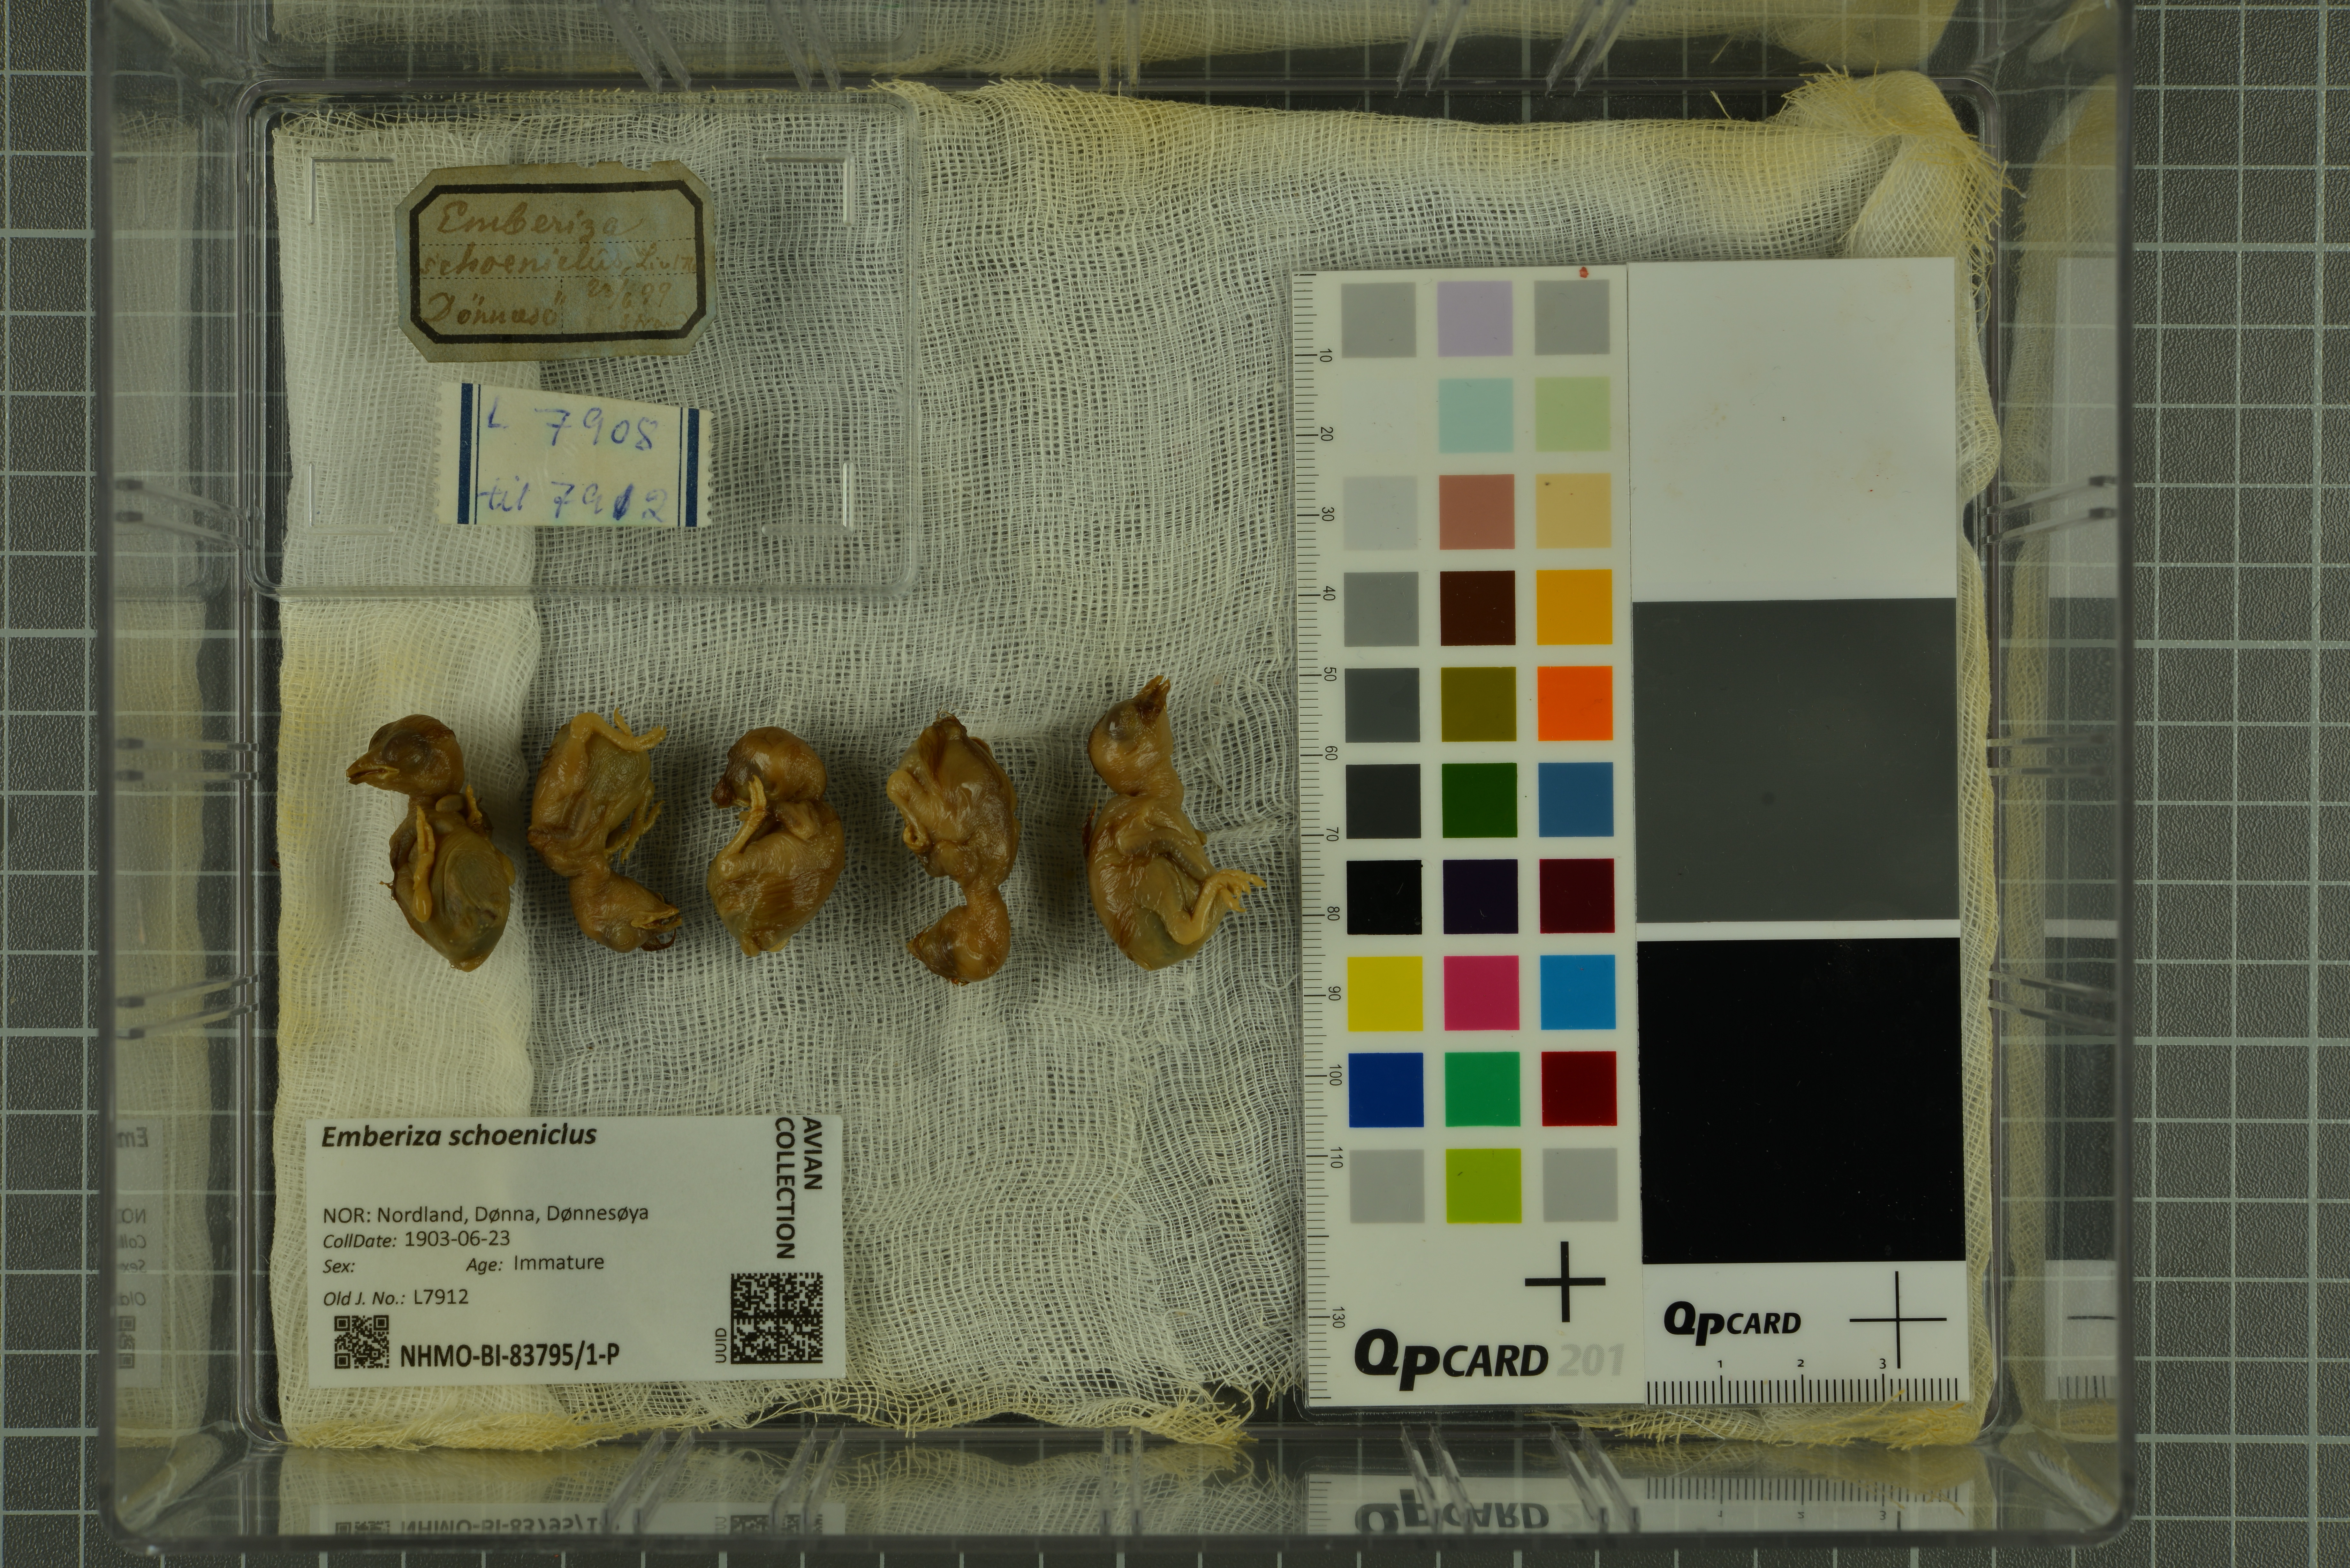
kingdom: Animalia
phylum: Chordata
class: Aves
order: Passeriformes
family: Emberizidae
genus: Emberiza
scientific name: Emberiza schoeniclus
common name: Reed bunting
